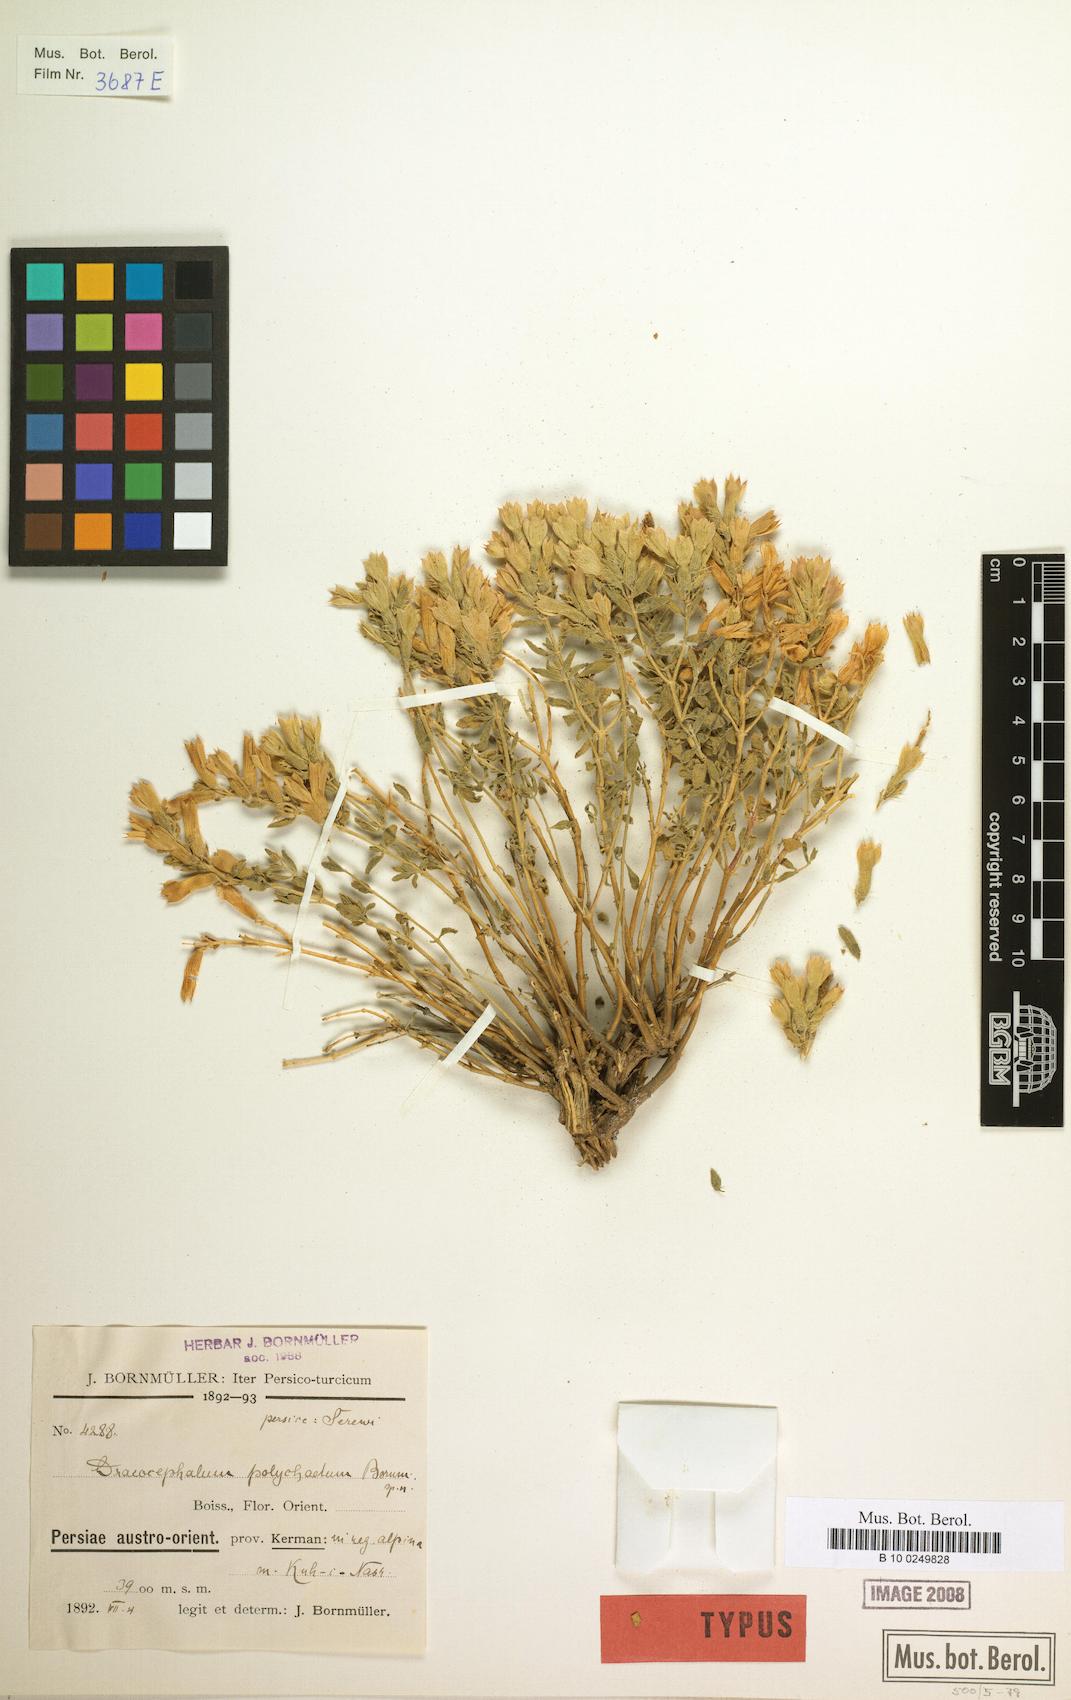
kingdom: Plantae
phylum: Tracheophyta
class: Magnoliopsida
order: Lamiales
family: Lamiaceae
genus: Dracocephalum
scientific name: Dracocephalum polychaetum
